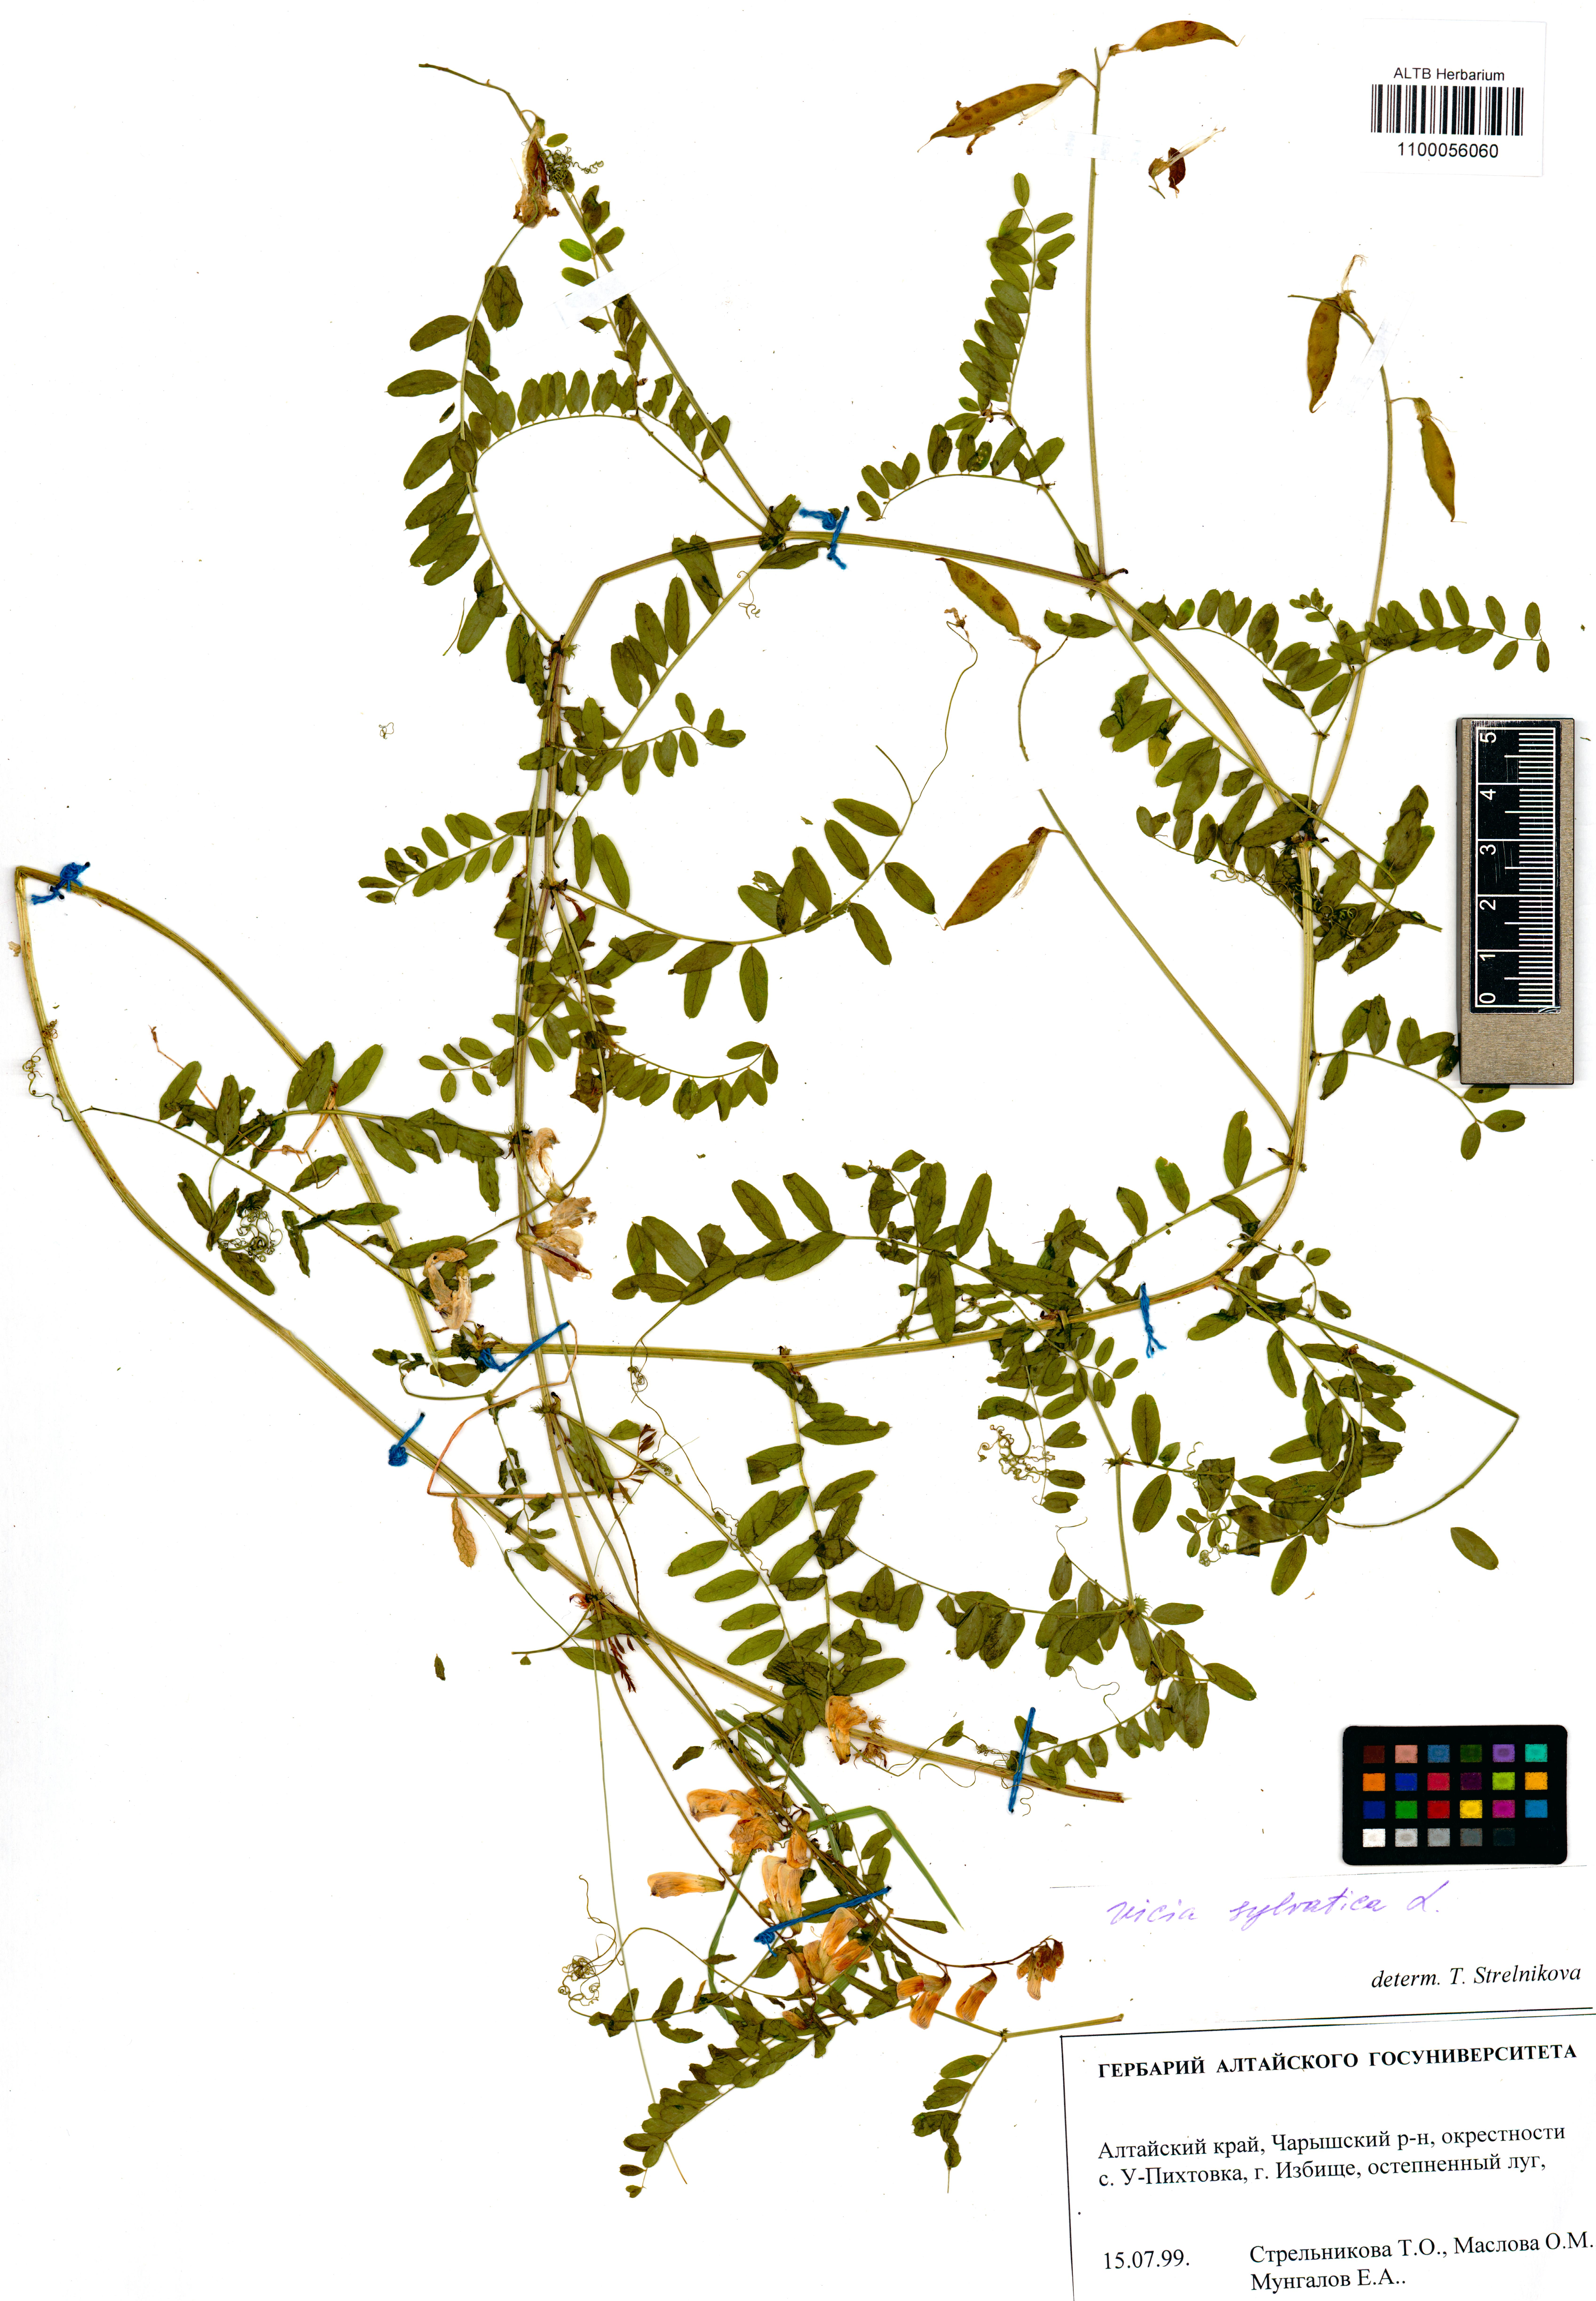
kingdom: Plantae
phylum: Tracheophyta
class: Magnoliopsida
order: Fabales
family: Fabaceae
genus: Vicia
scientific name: Vicia sylvatica
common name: Wood vetch
